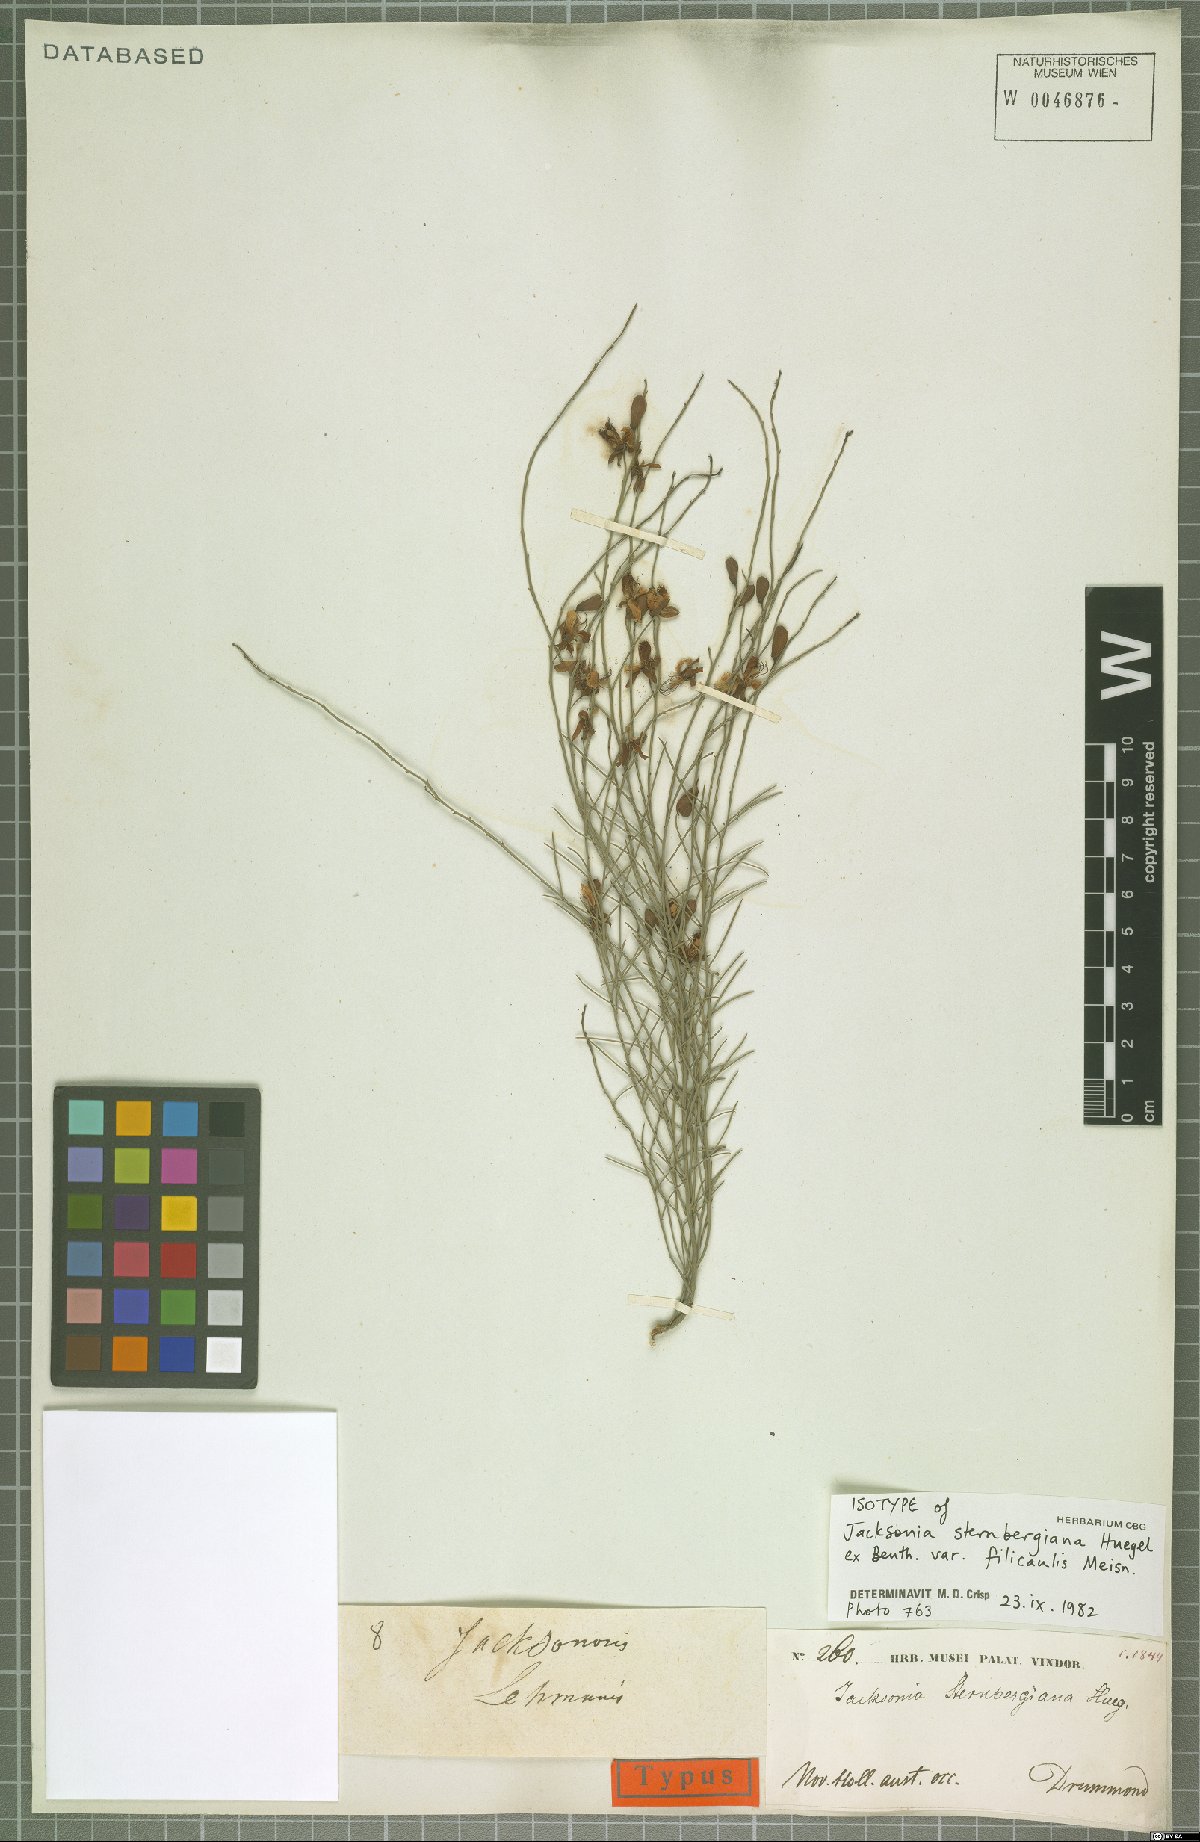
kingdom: Plantae
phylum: Tracheophyta
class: Magnoliopsida
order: Fabales
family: Fabaceae
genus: Jacksonia
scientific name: Jacksonia sternbergiana
